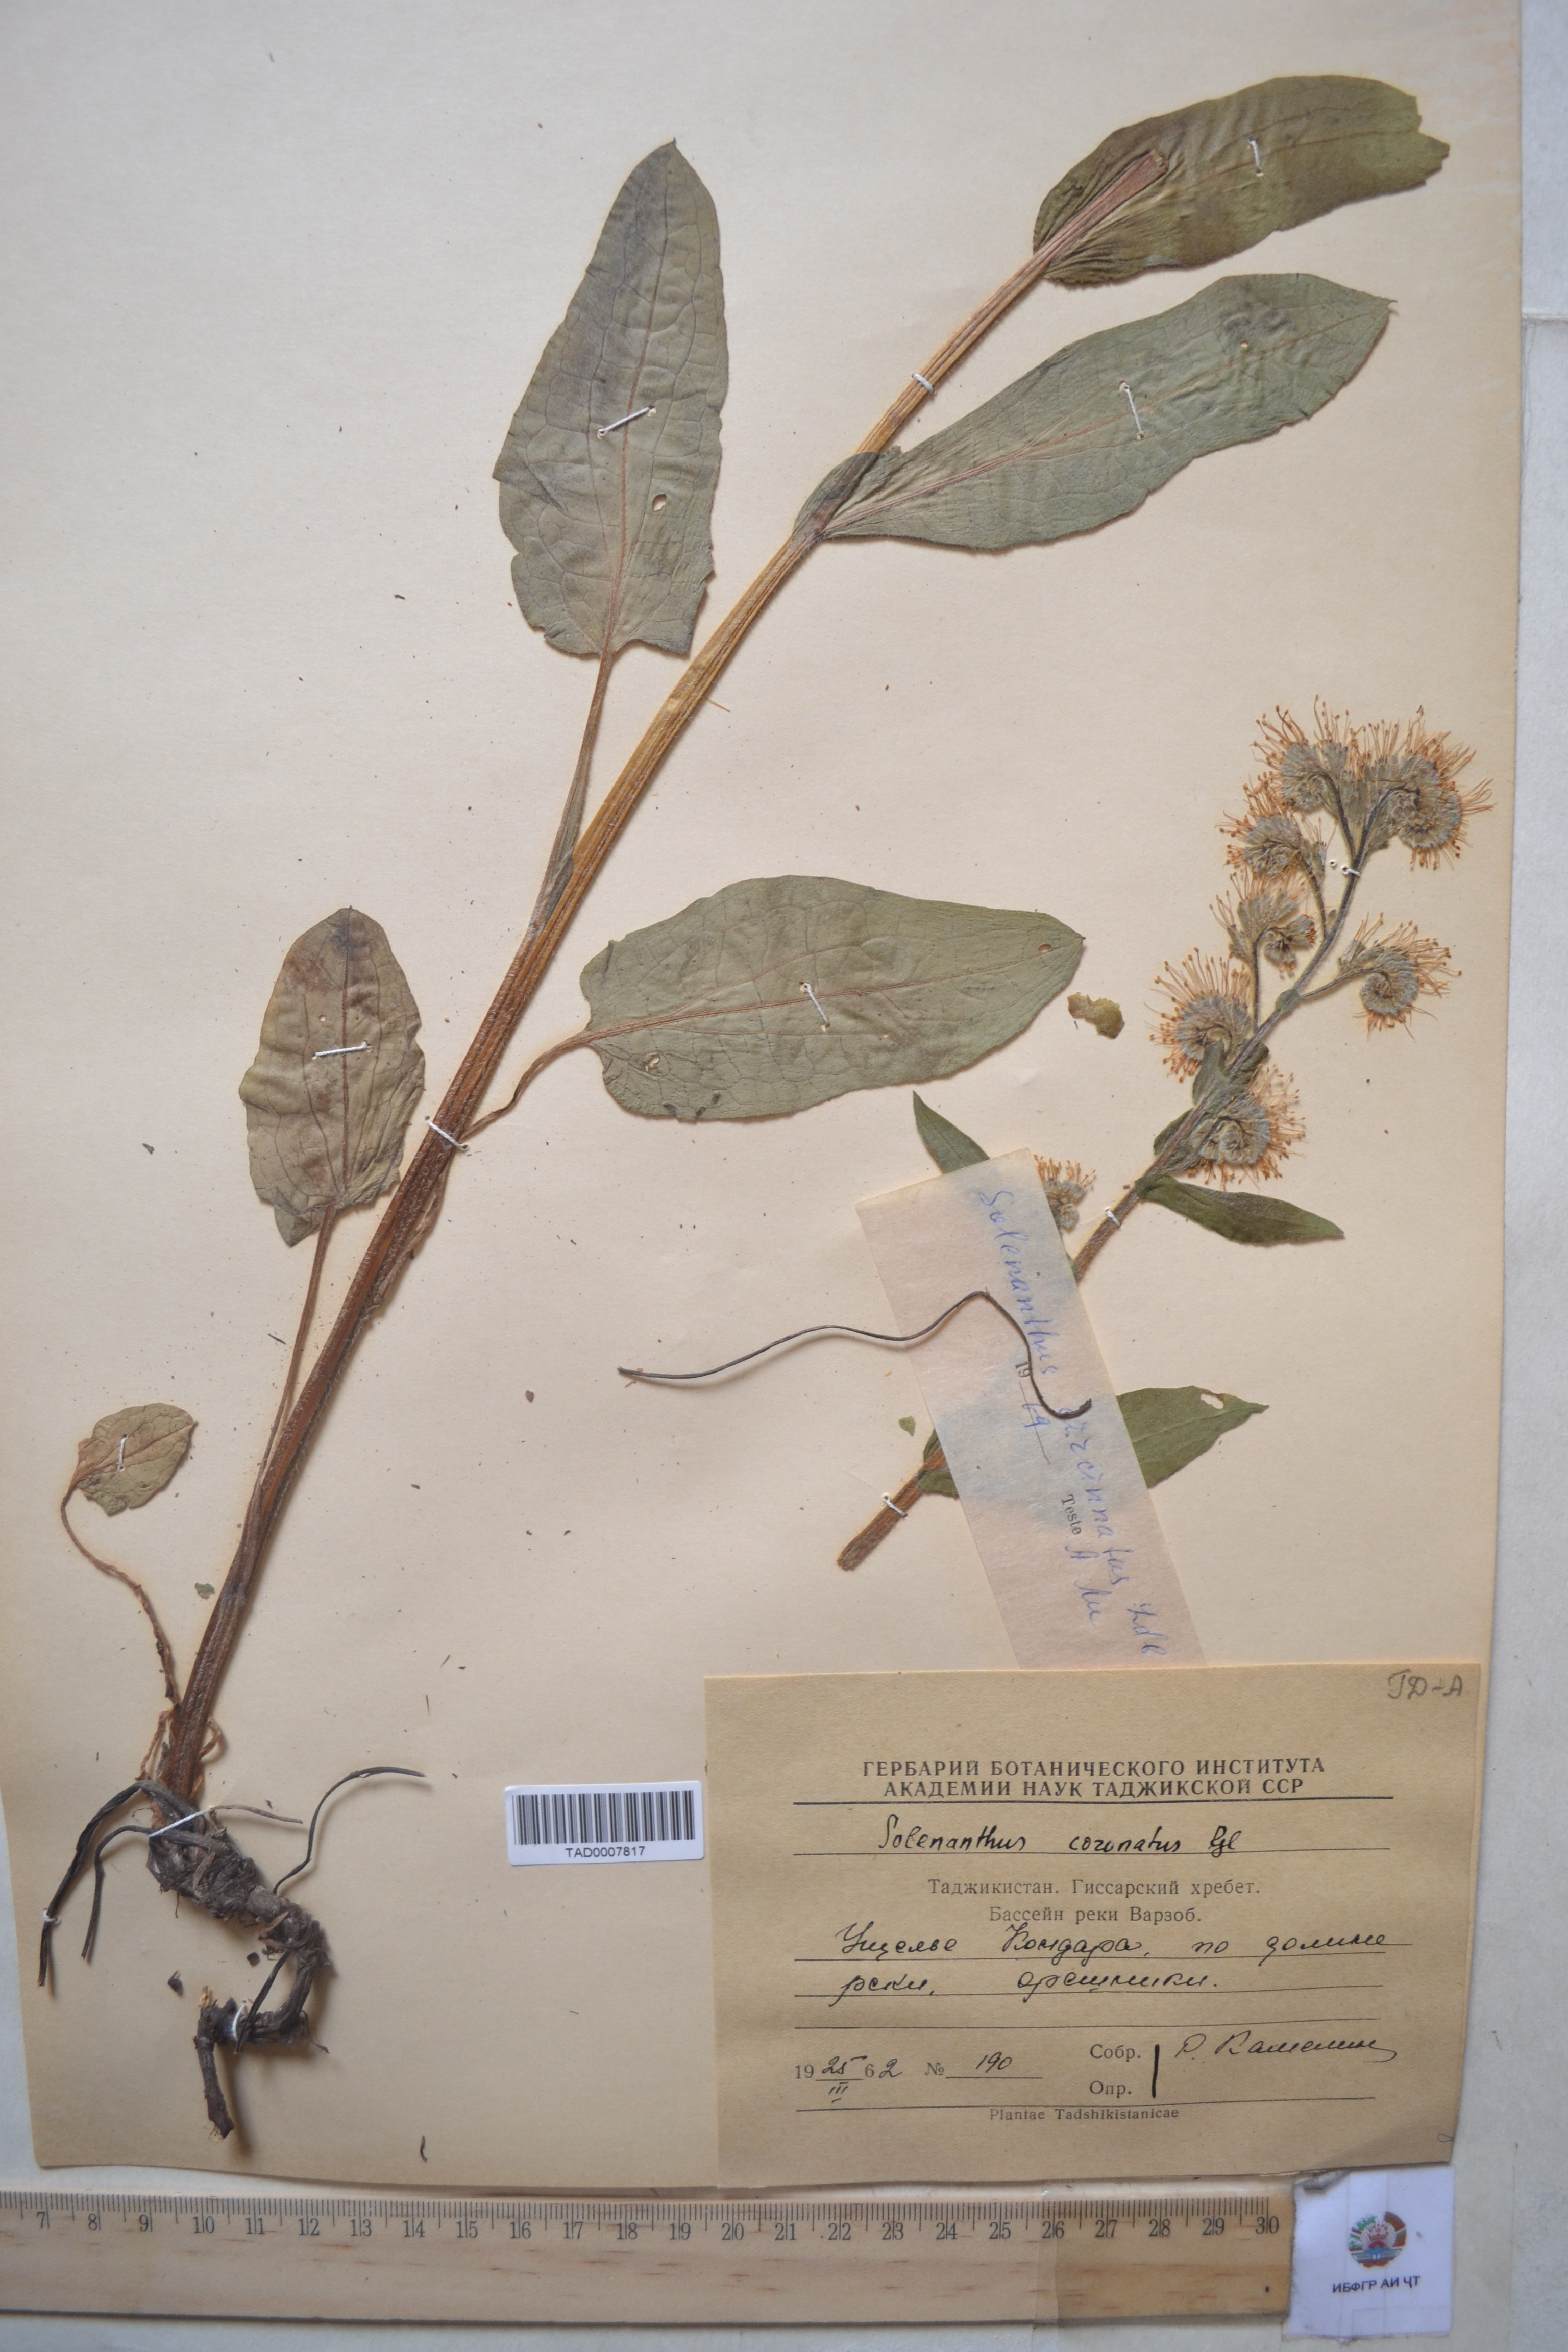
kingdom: Plantae
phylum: Tracheophyta
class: Magnoliopsida
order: Boraginales
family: Boraginaceae
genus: Solenanthus
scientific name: Solenanthus circinnatus
